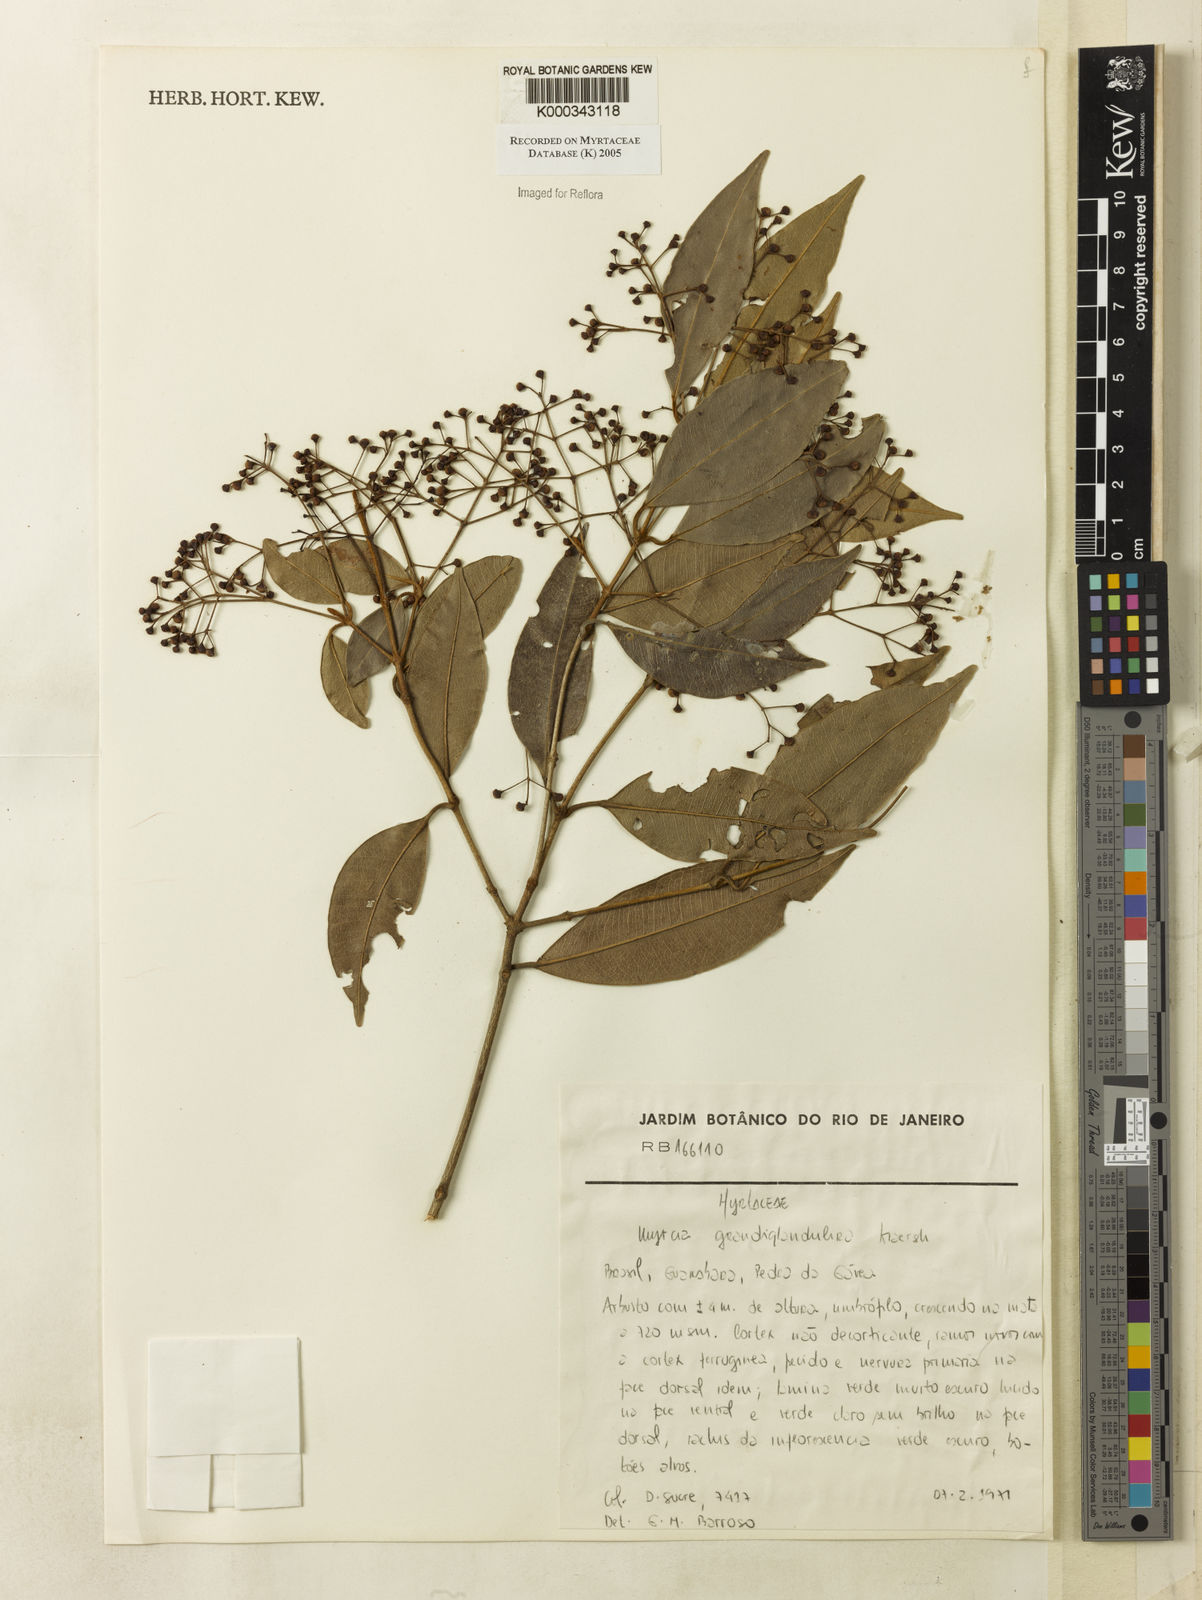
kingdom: Plantae
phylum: Tracheophyta
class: Magnoliopsida
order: Myrtales
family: Myrtaceae
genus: Myrcia
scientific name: Myrcia aethusa
